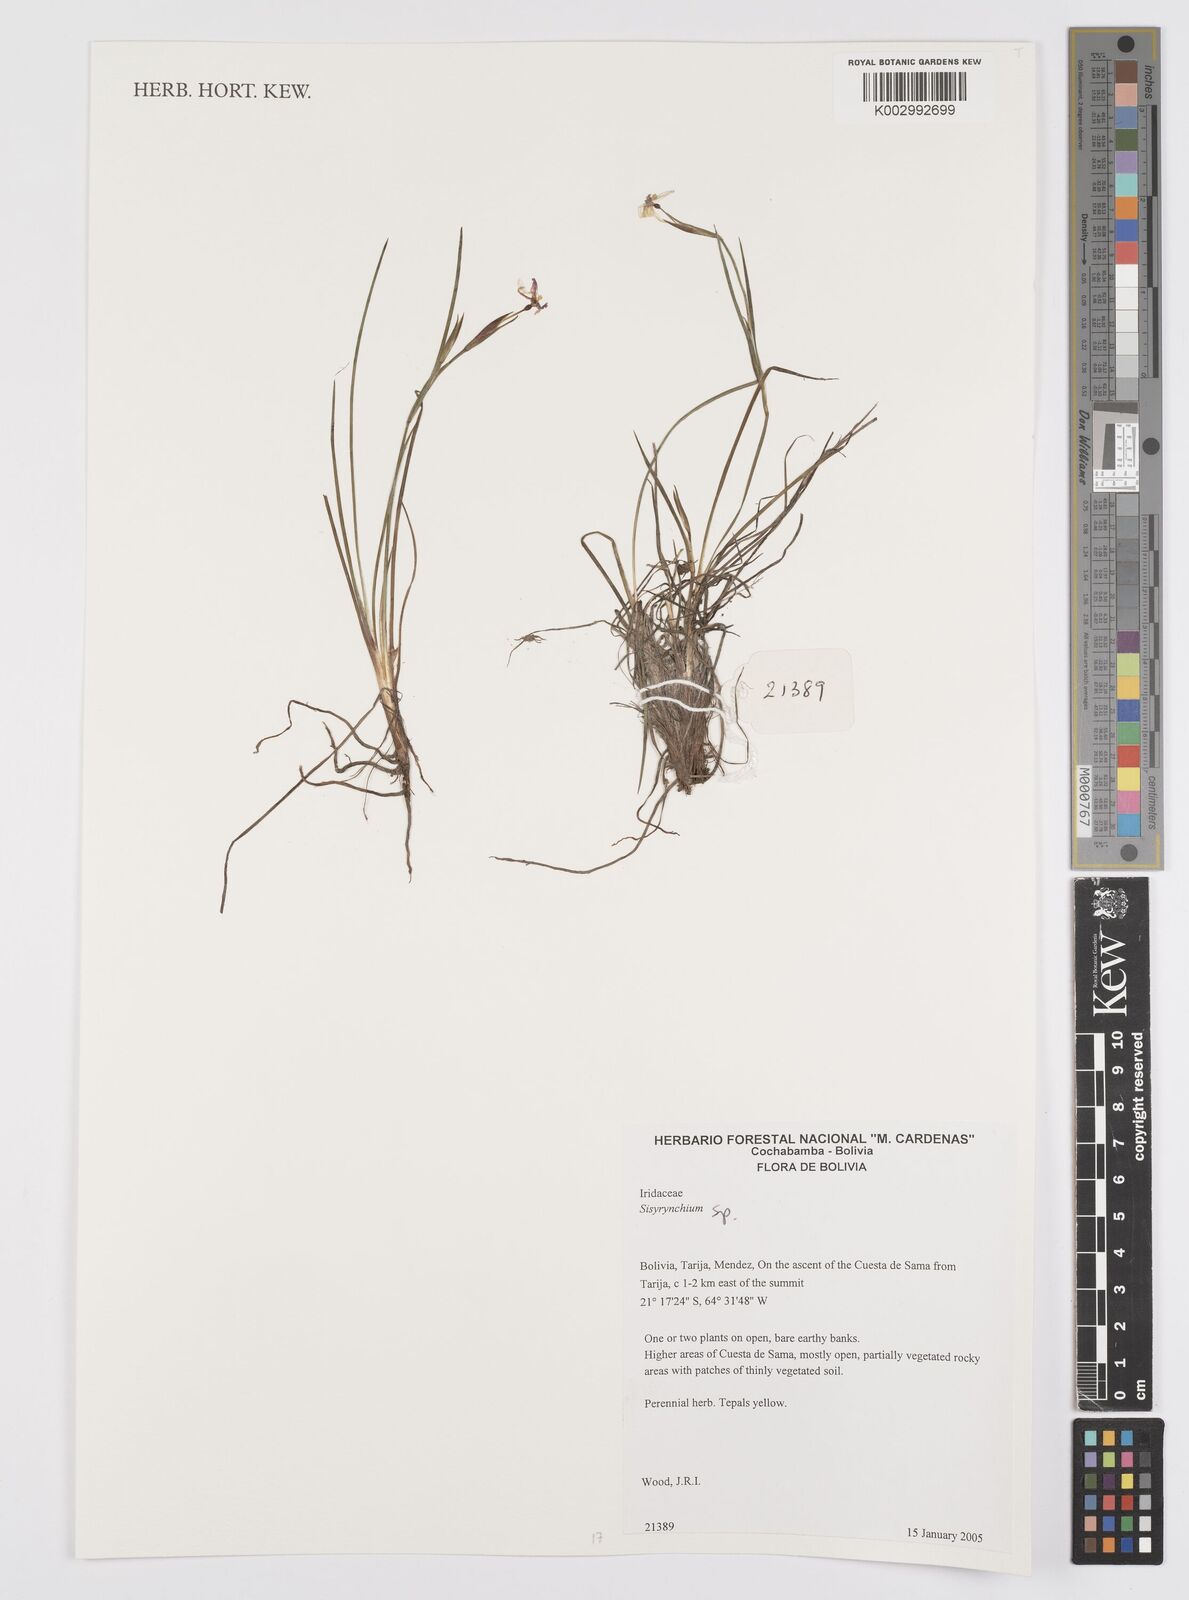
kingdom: Plantae
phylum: Tracheophyta
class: Liliopsida
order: Asparagales
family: Iridaceae
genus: Sisyrinchium
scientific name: Sisyrinchium
